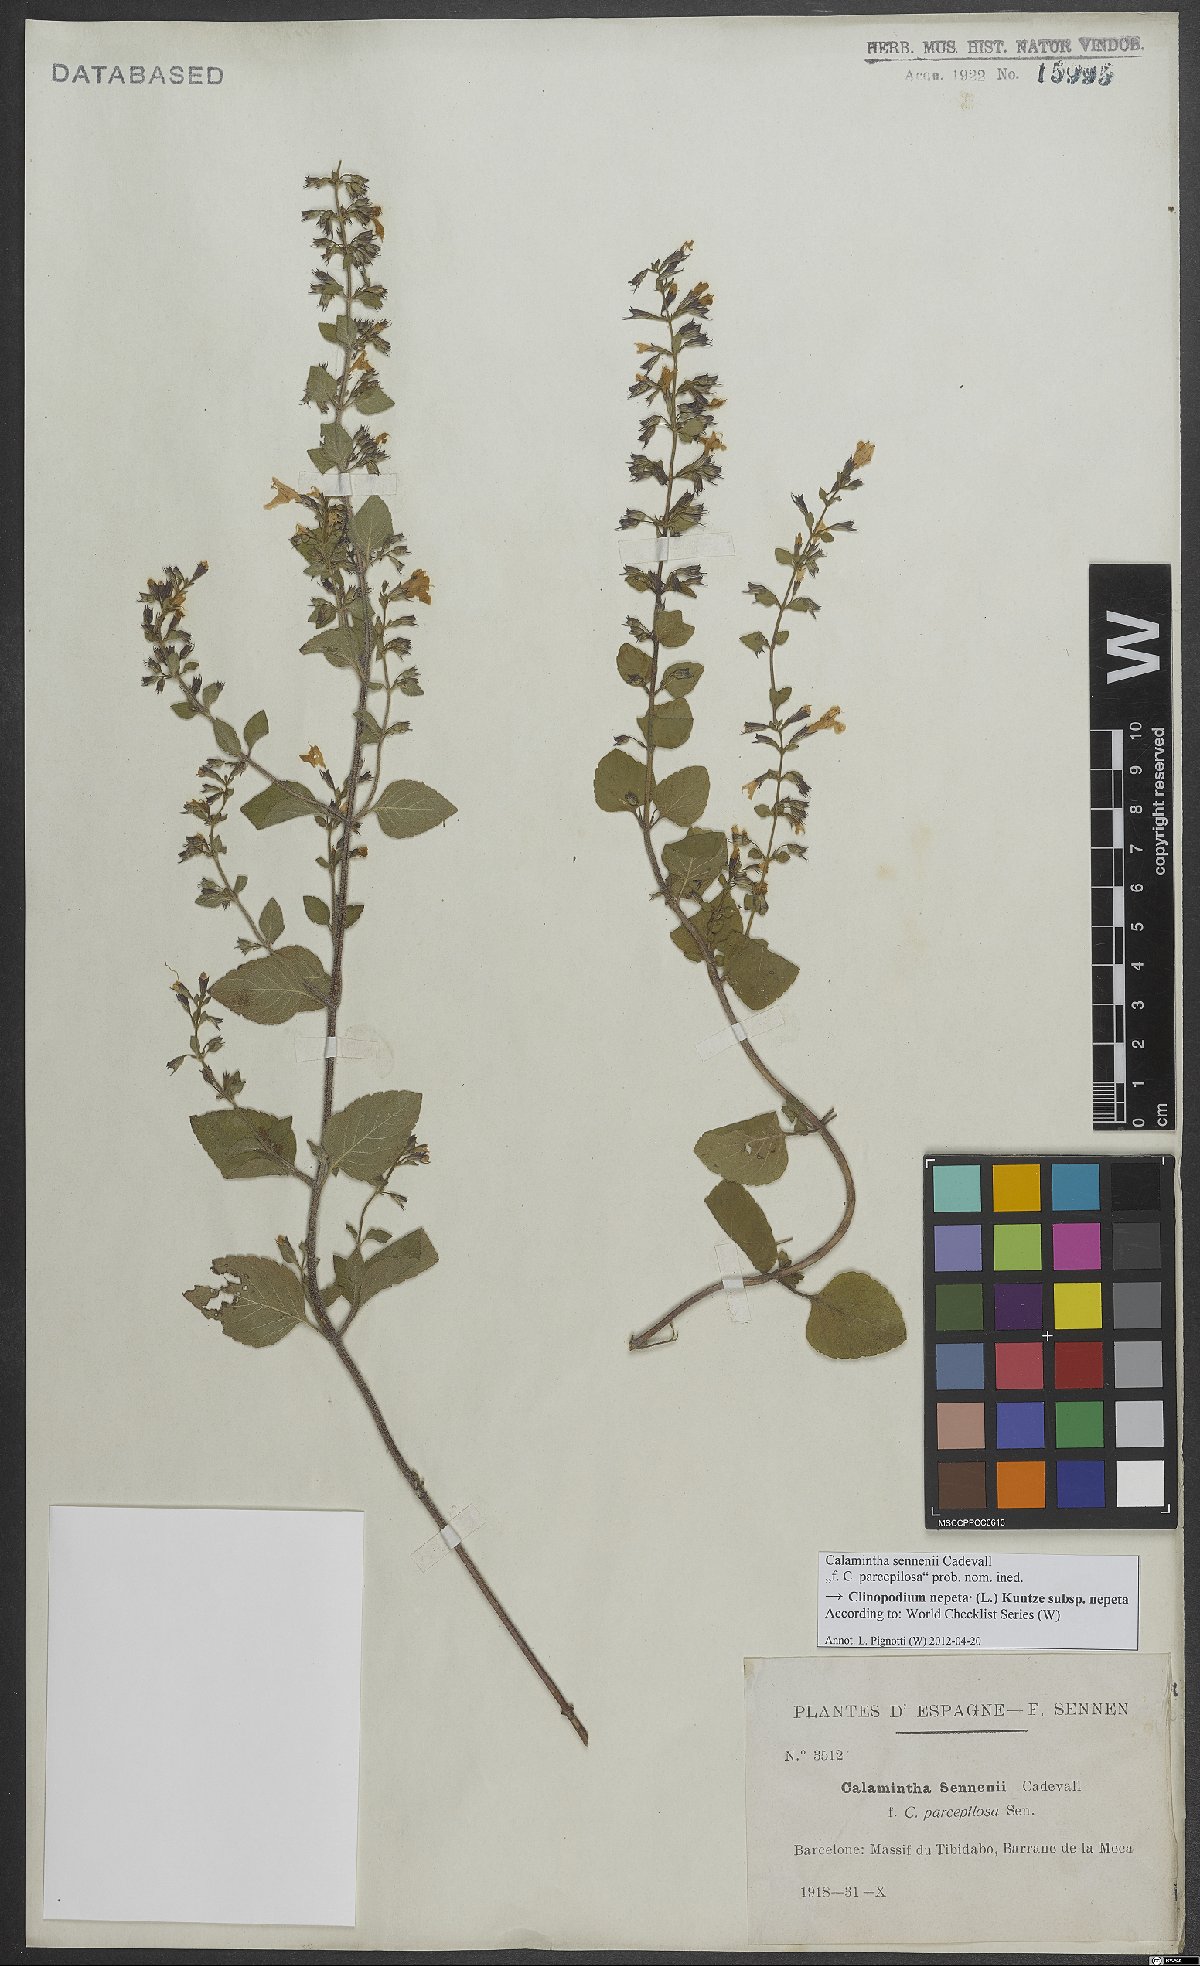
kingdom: Plantae
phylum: Tracheophyta
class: Magnoliopsida
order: Lamiales
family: Lamiaceae
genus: Clinopodium
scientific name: Clinopodium nepeta
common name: Lesser calamint
